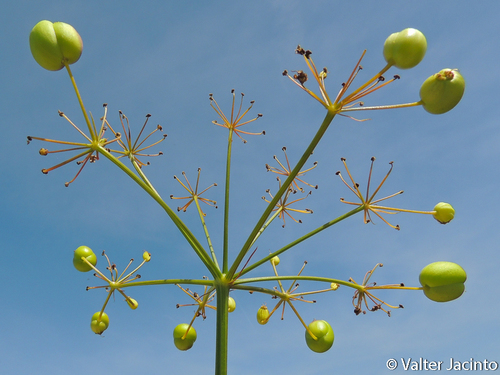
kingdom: Plantae
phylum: Tracheophyta
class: Magnoliopsida
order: Apiales
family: Apiaceae
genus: Prangos
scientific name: Prangos trifida
